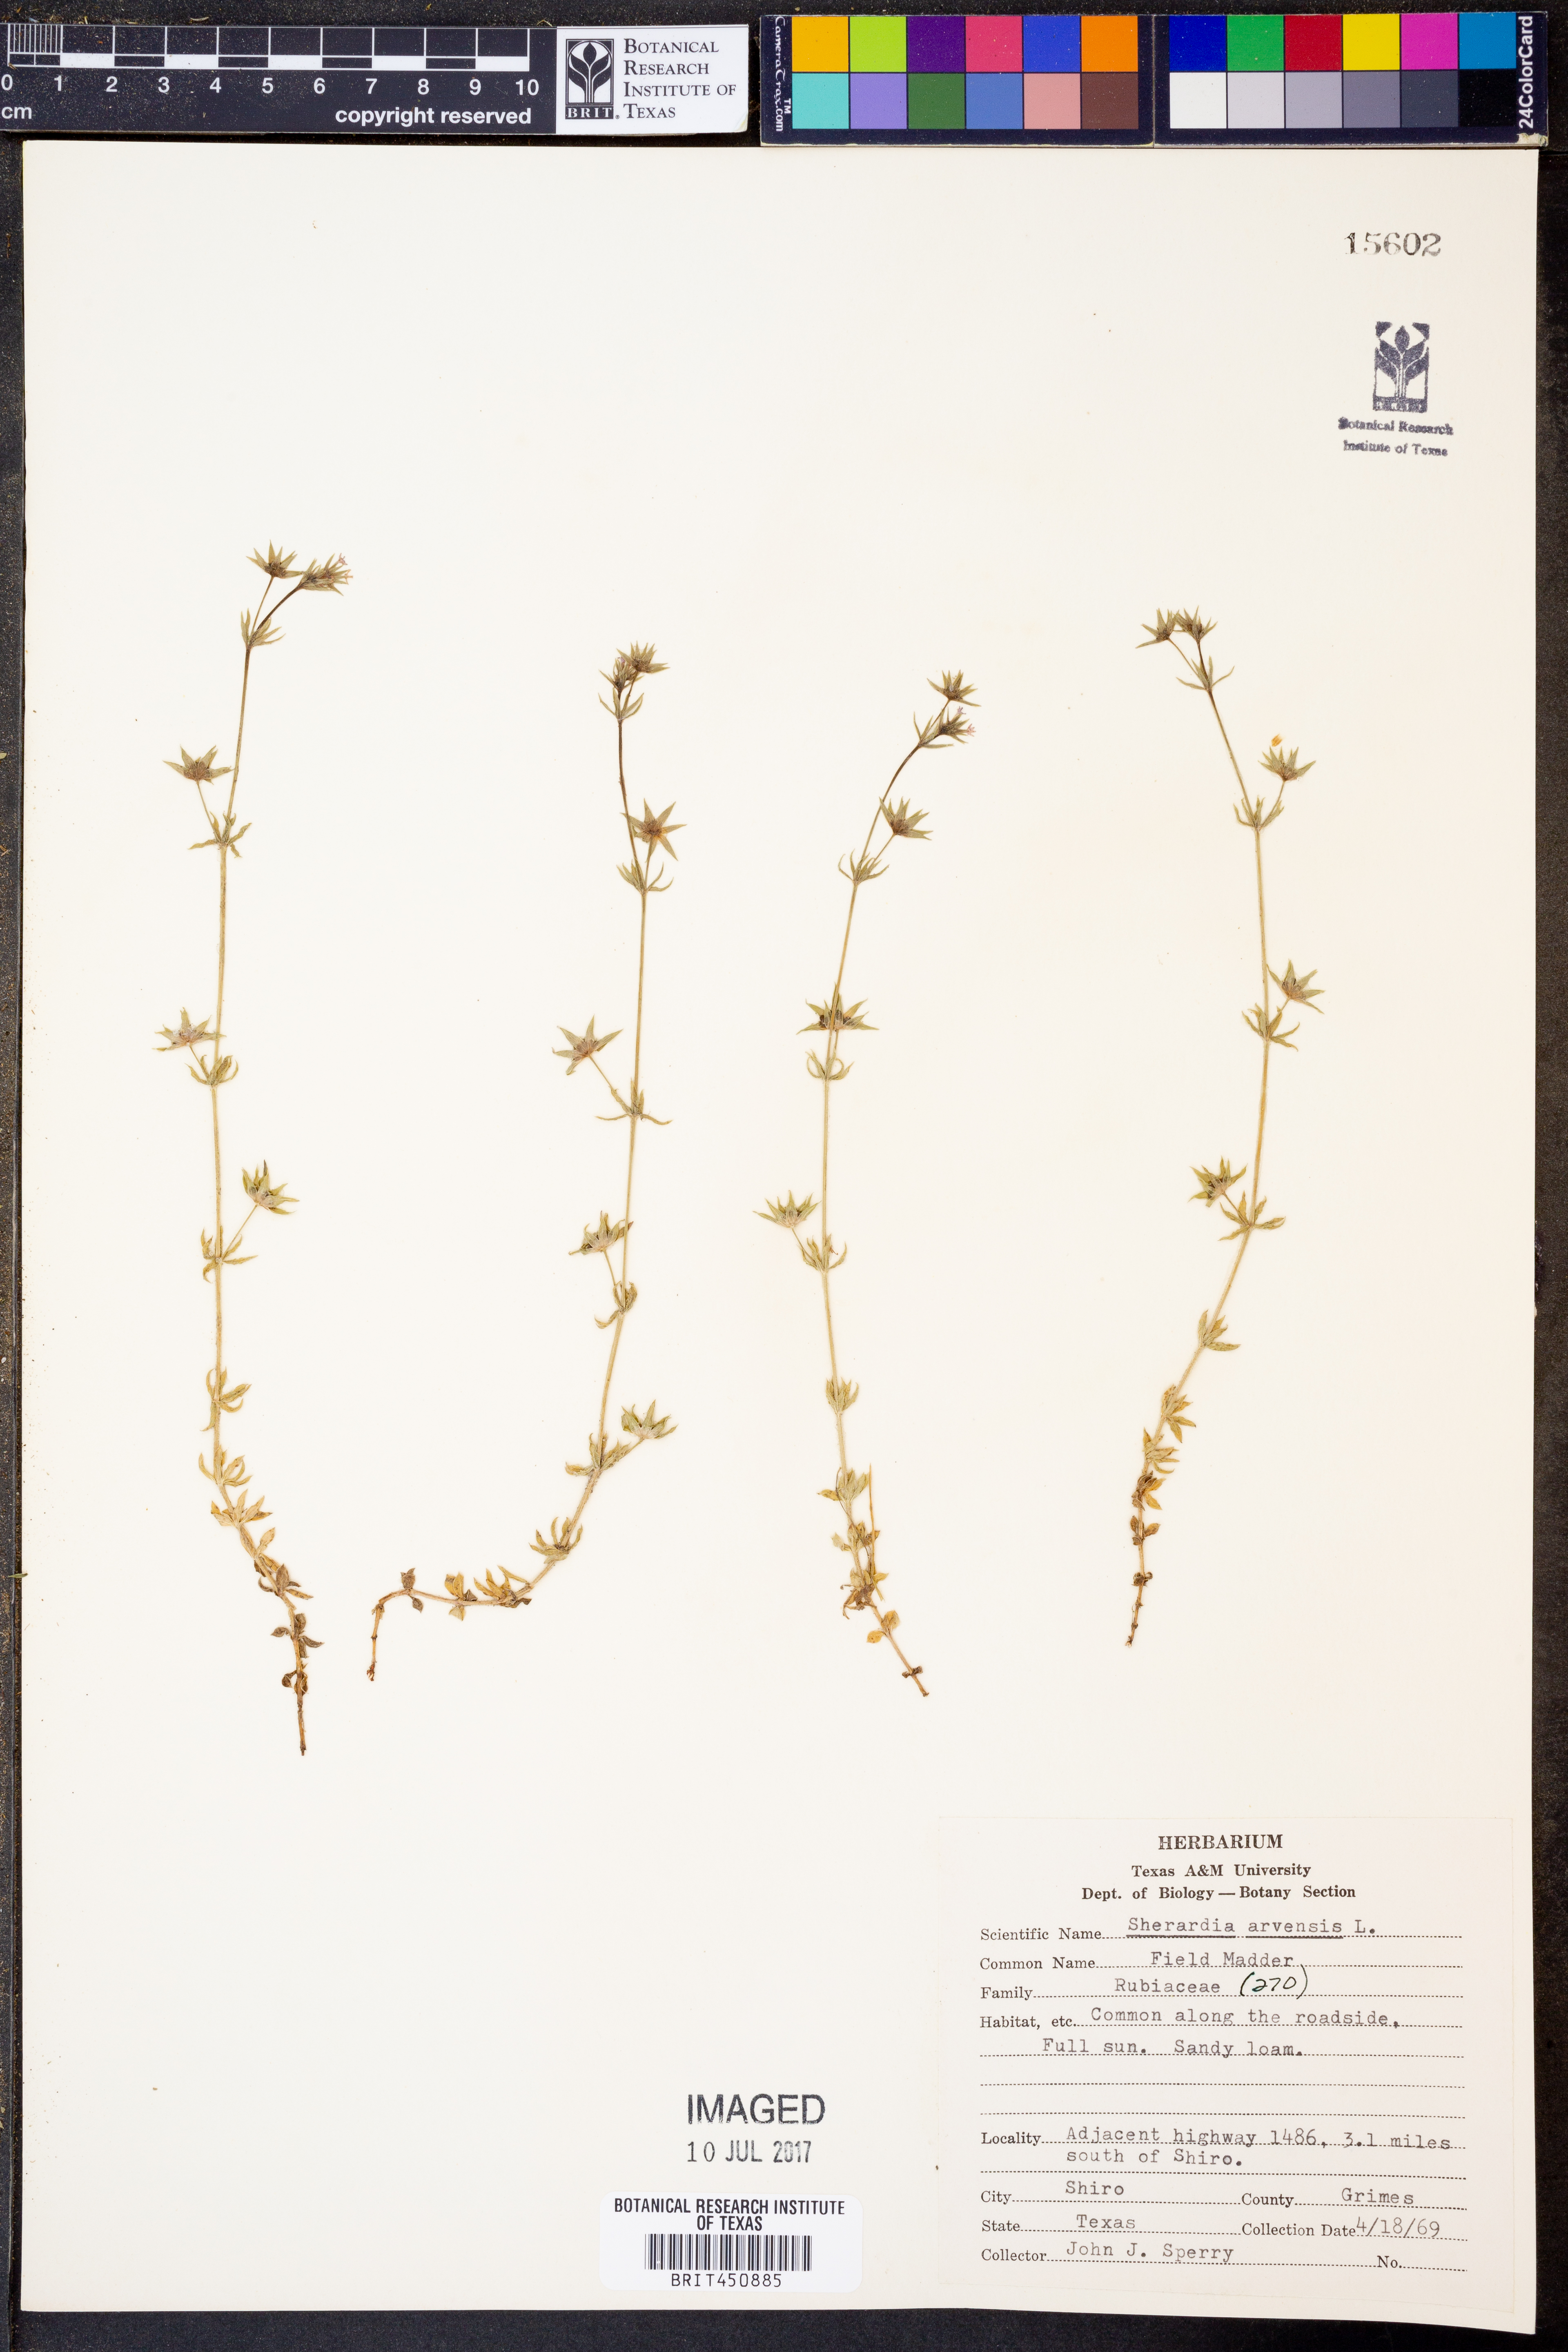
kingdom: Plantae
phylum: Tracheophyta
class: Magnoliopsida
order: Gentianales
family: Rubiaceae
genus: Sherardia
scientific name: Sherardia arvensis
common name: Field madder
